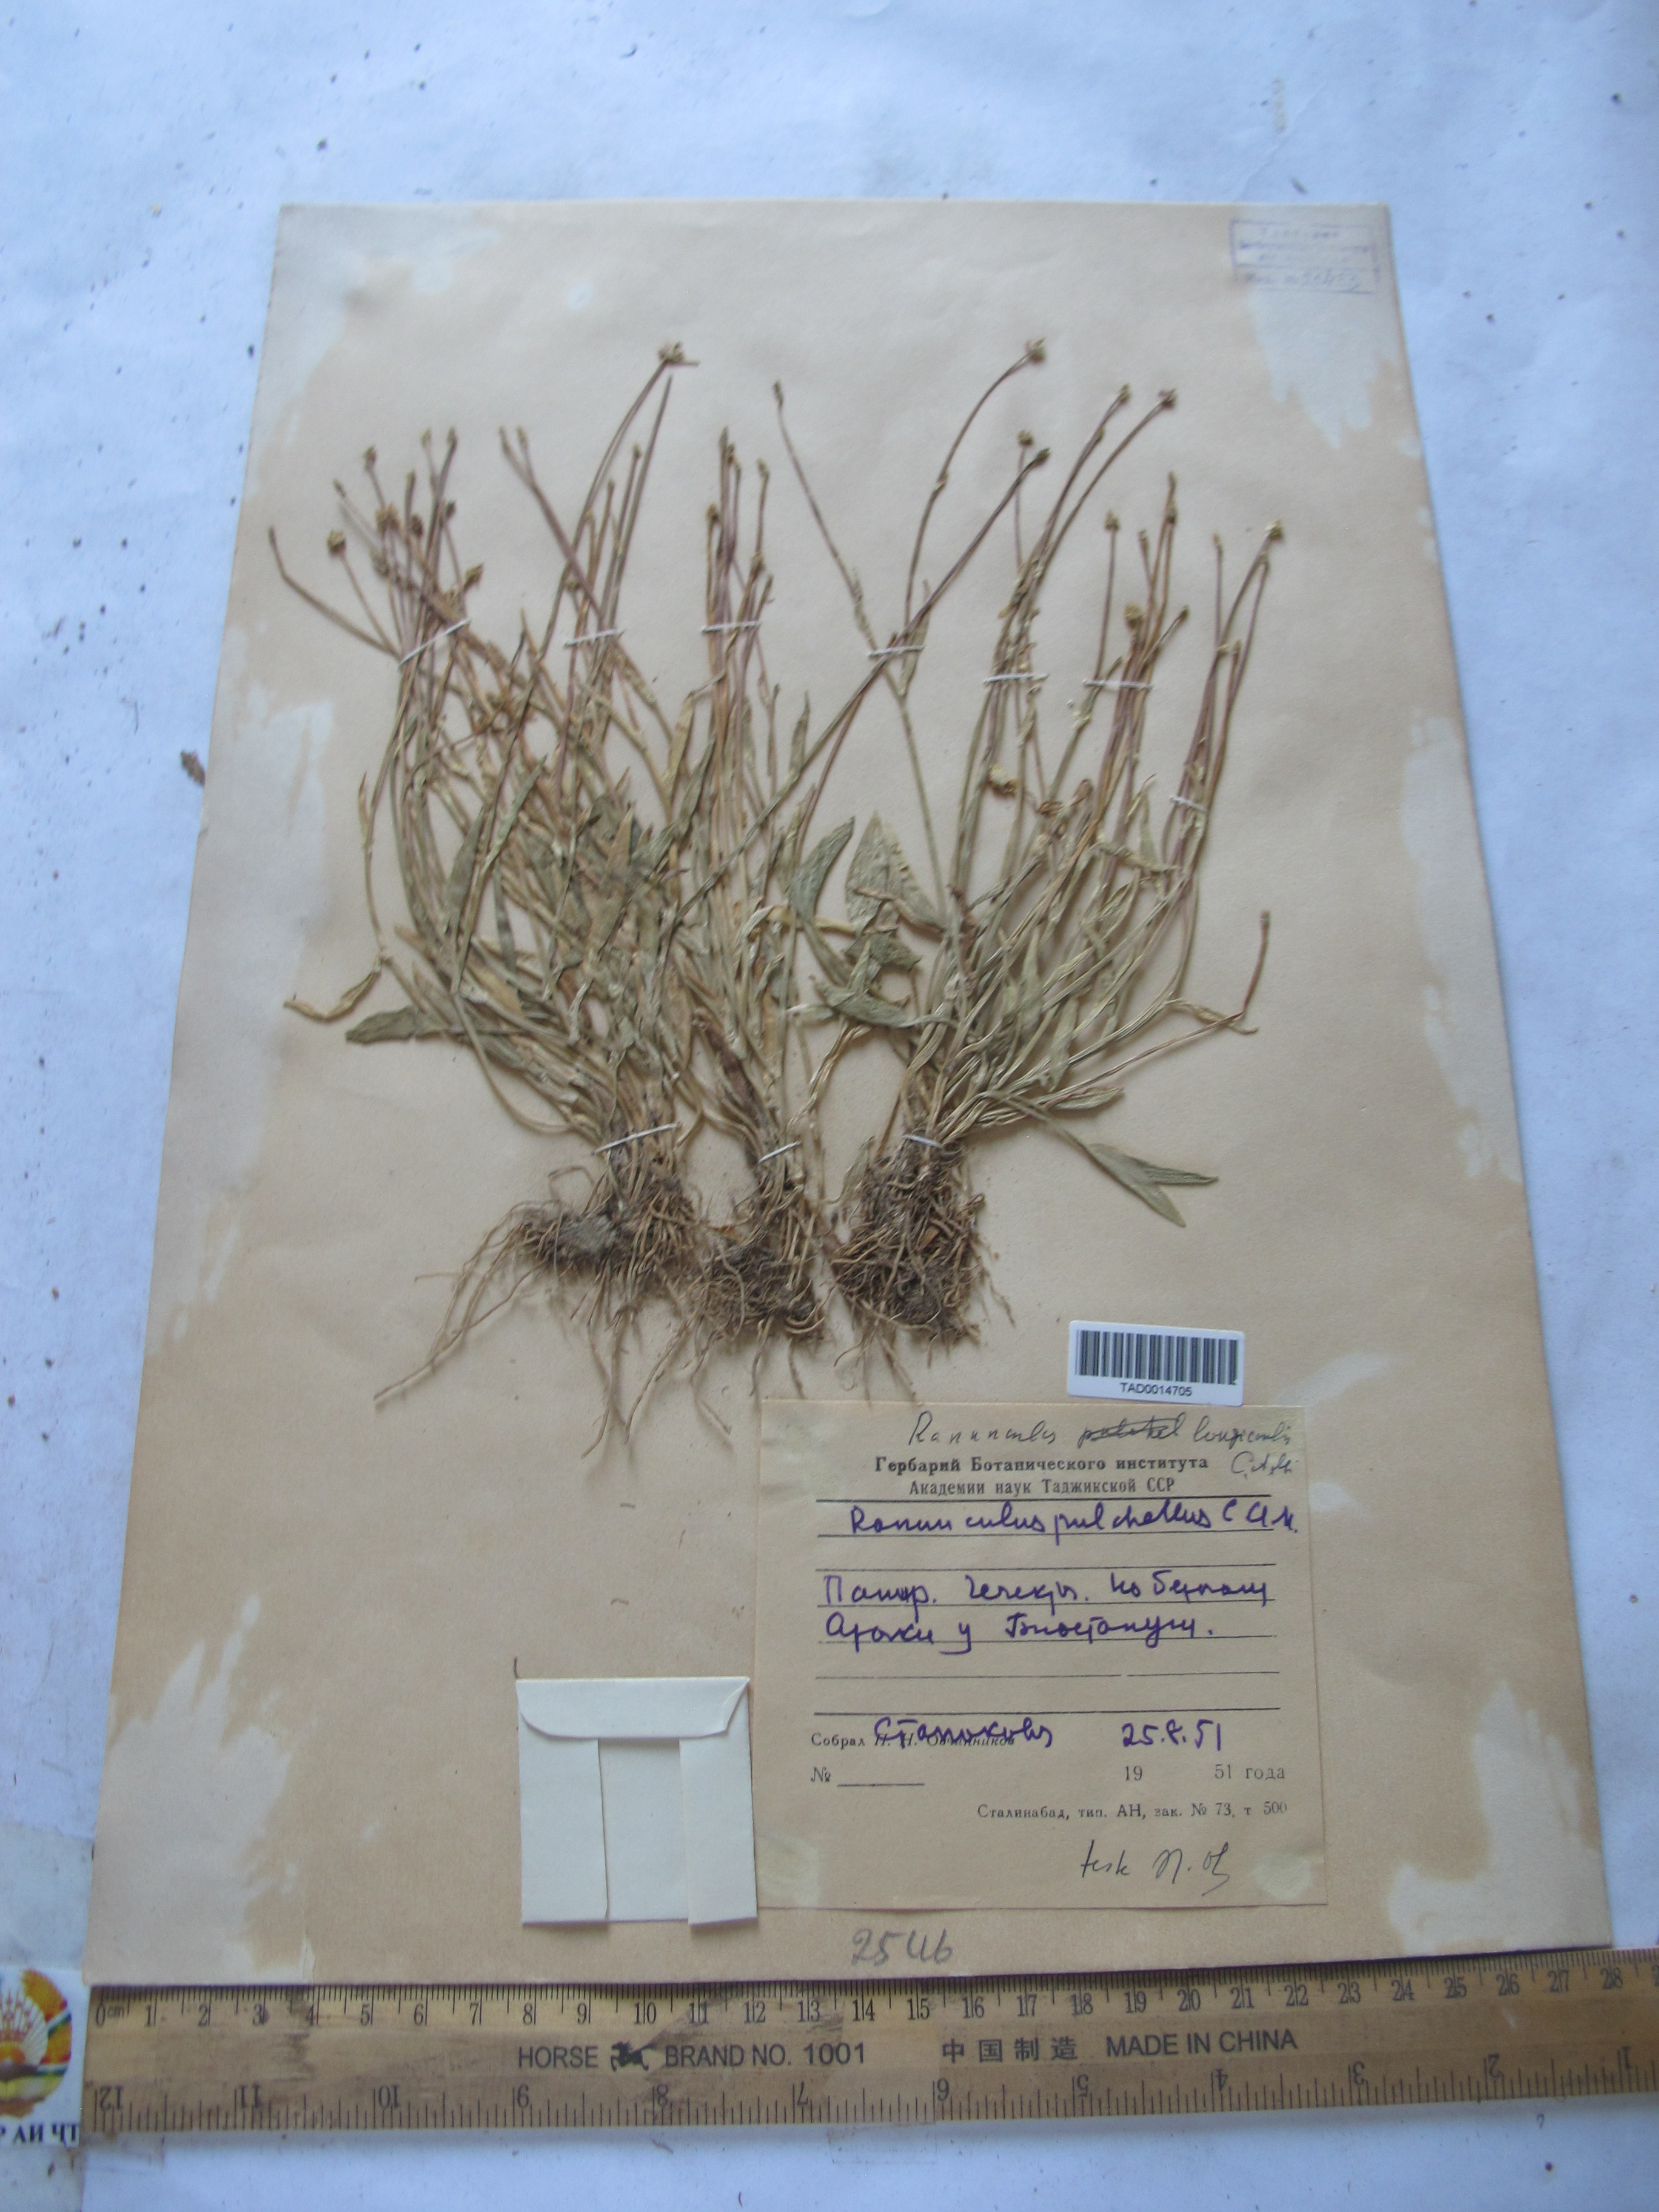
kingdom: Plantae
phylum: Tracheophyta
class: Magnoliopsida
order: Ranunculales
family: Ranunculaceae
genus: Ranunculus
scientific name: Ranunculus pulchellus
